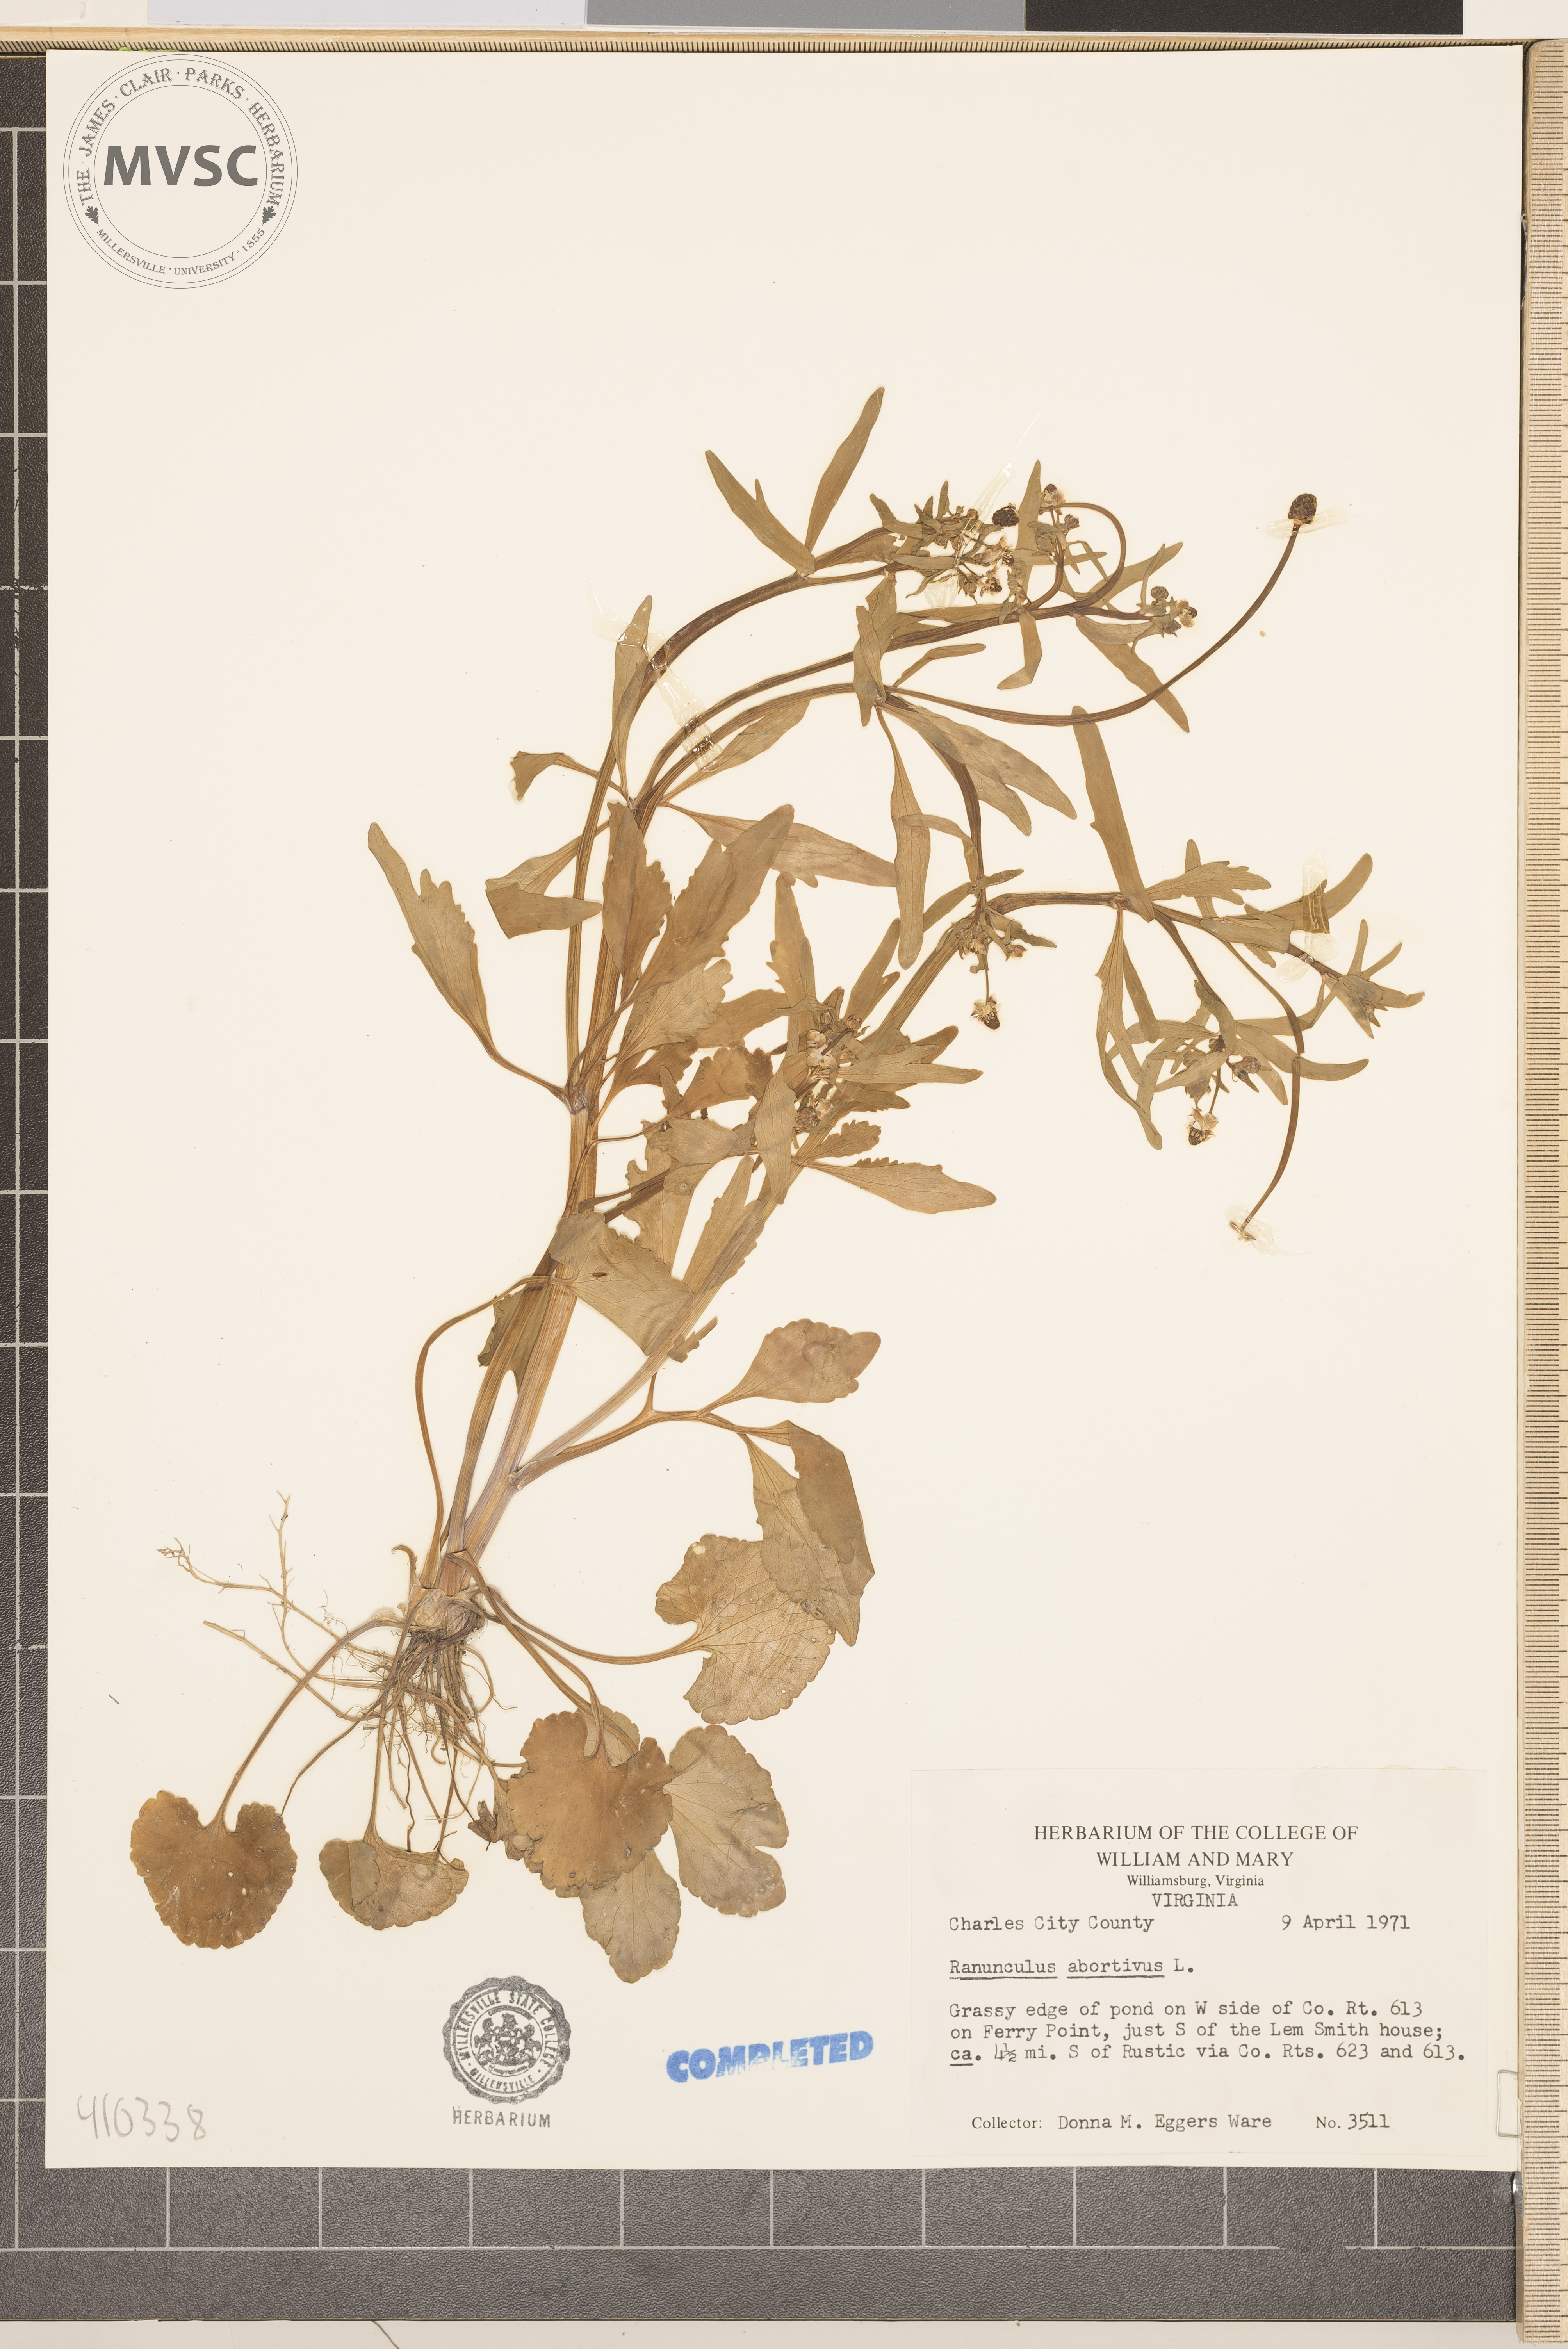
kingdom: Plantae
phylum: Tracheophyta
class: Magnoliopsida
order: Ranunculales
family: Ranunculaceae
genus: Ranunculus
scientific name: Ranunculus abortivus
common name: Early wood buttercup
